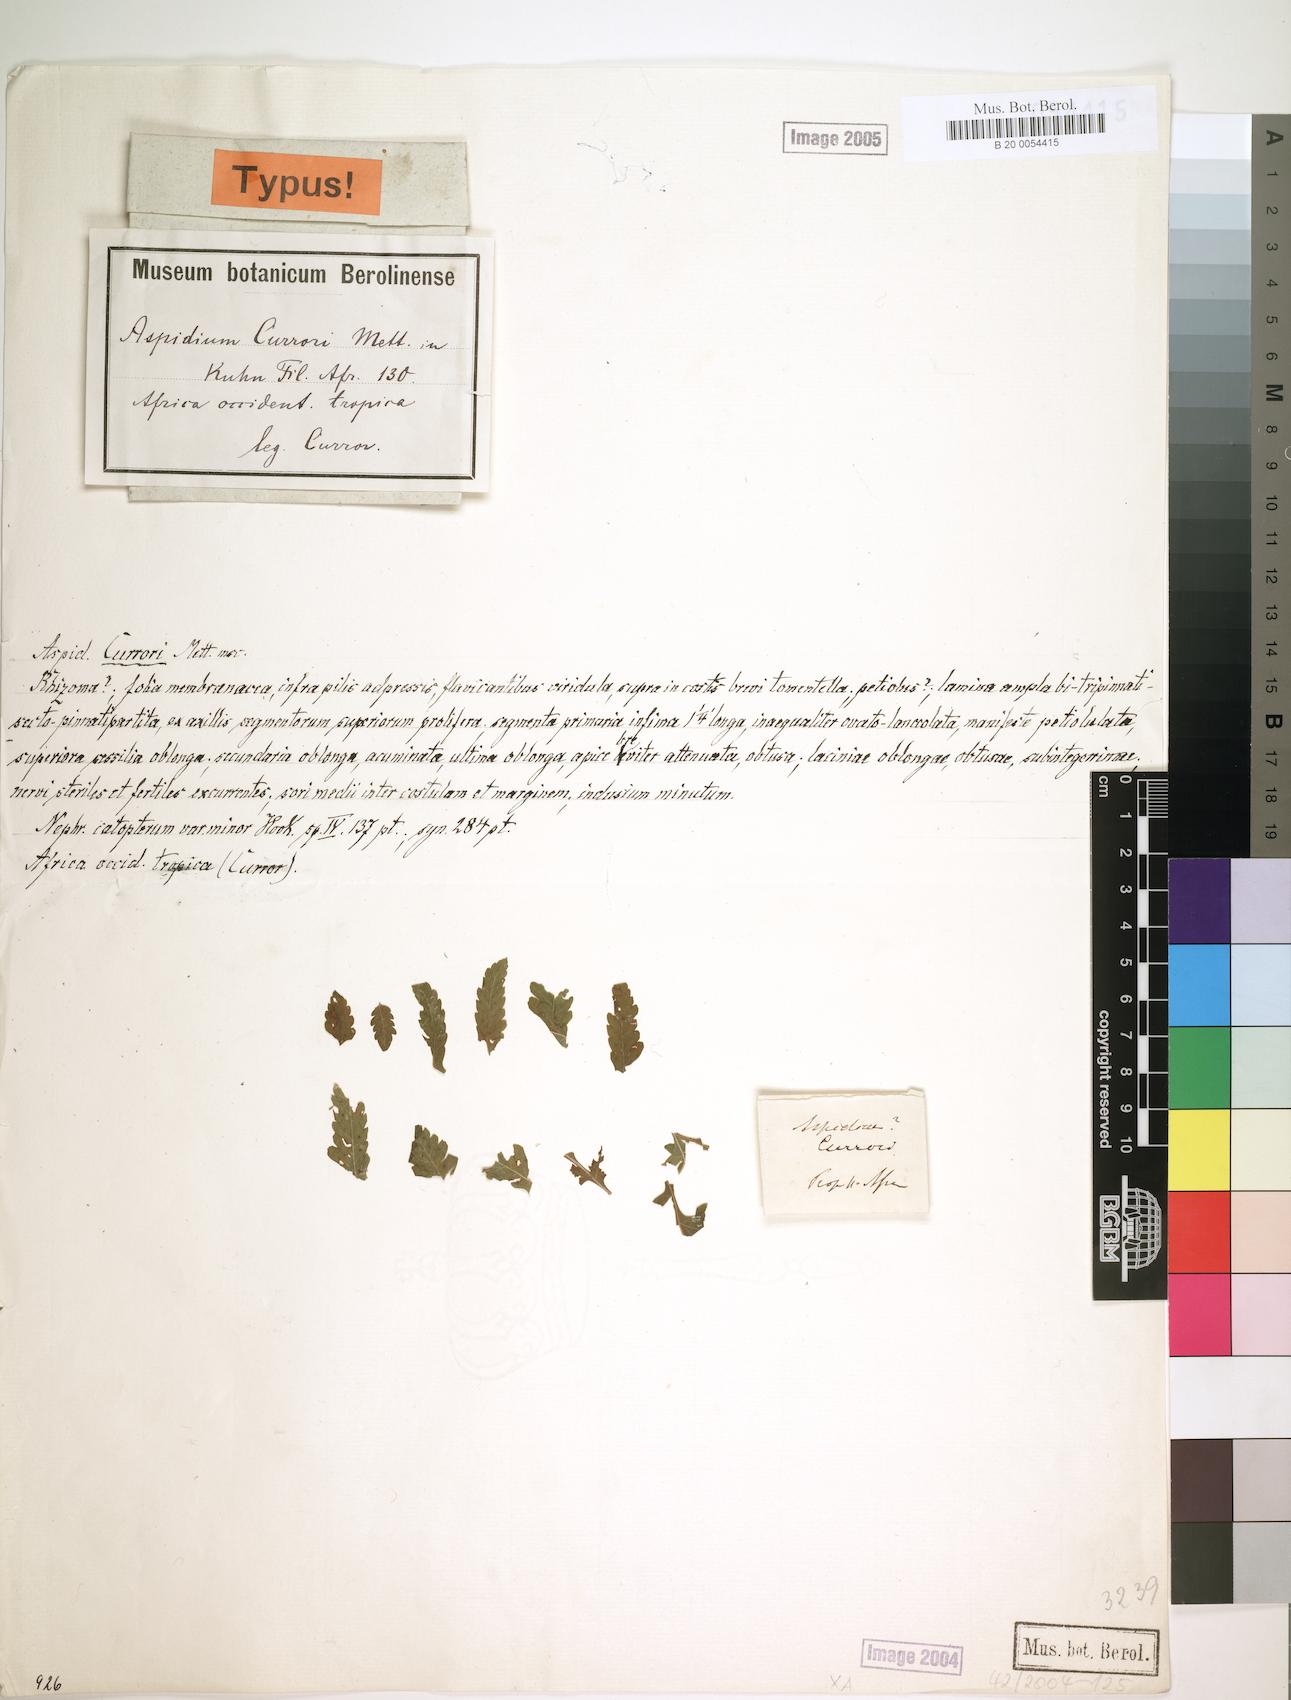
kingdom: Plantae
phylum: Tracheophyta
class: Polypodiopsida
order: Polypodiales
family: Dryopteridaceae
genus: Parapolystichum
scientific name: Parapolystichum currorii
